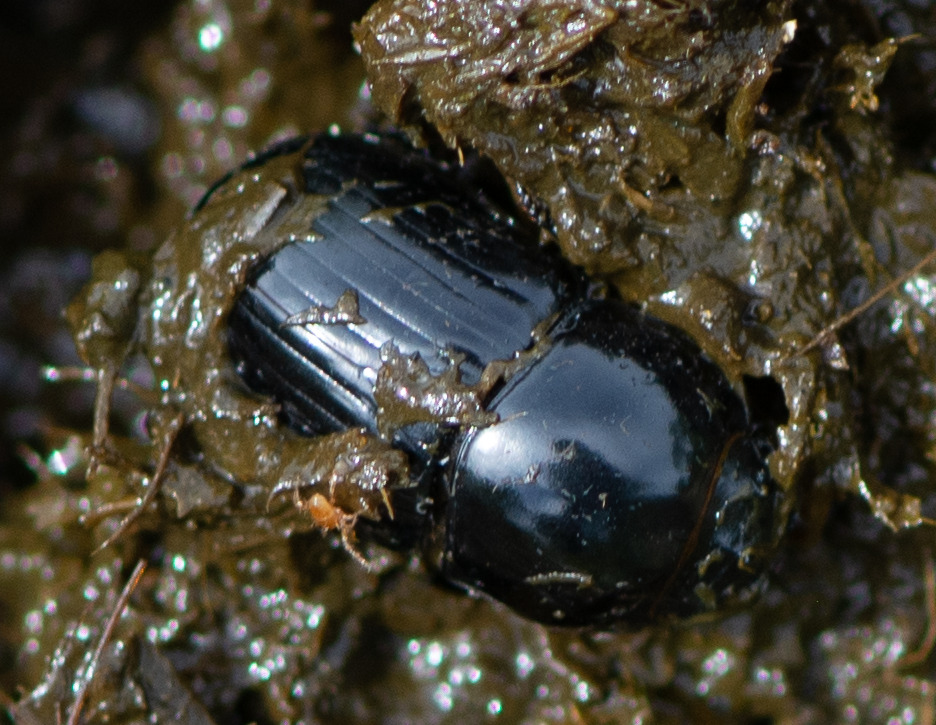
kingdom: Animalia
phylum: Arthropoda
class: Insecta
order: Coleoptera
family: Scarabaeidae
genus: Teuchestes
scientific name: Teuchestes fossor
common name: Stor møgbille
